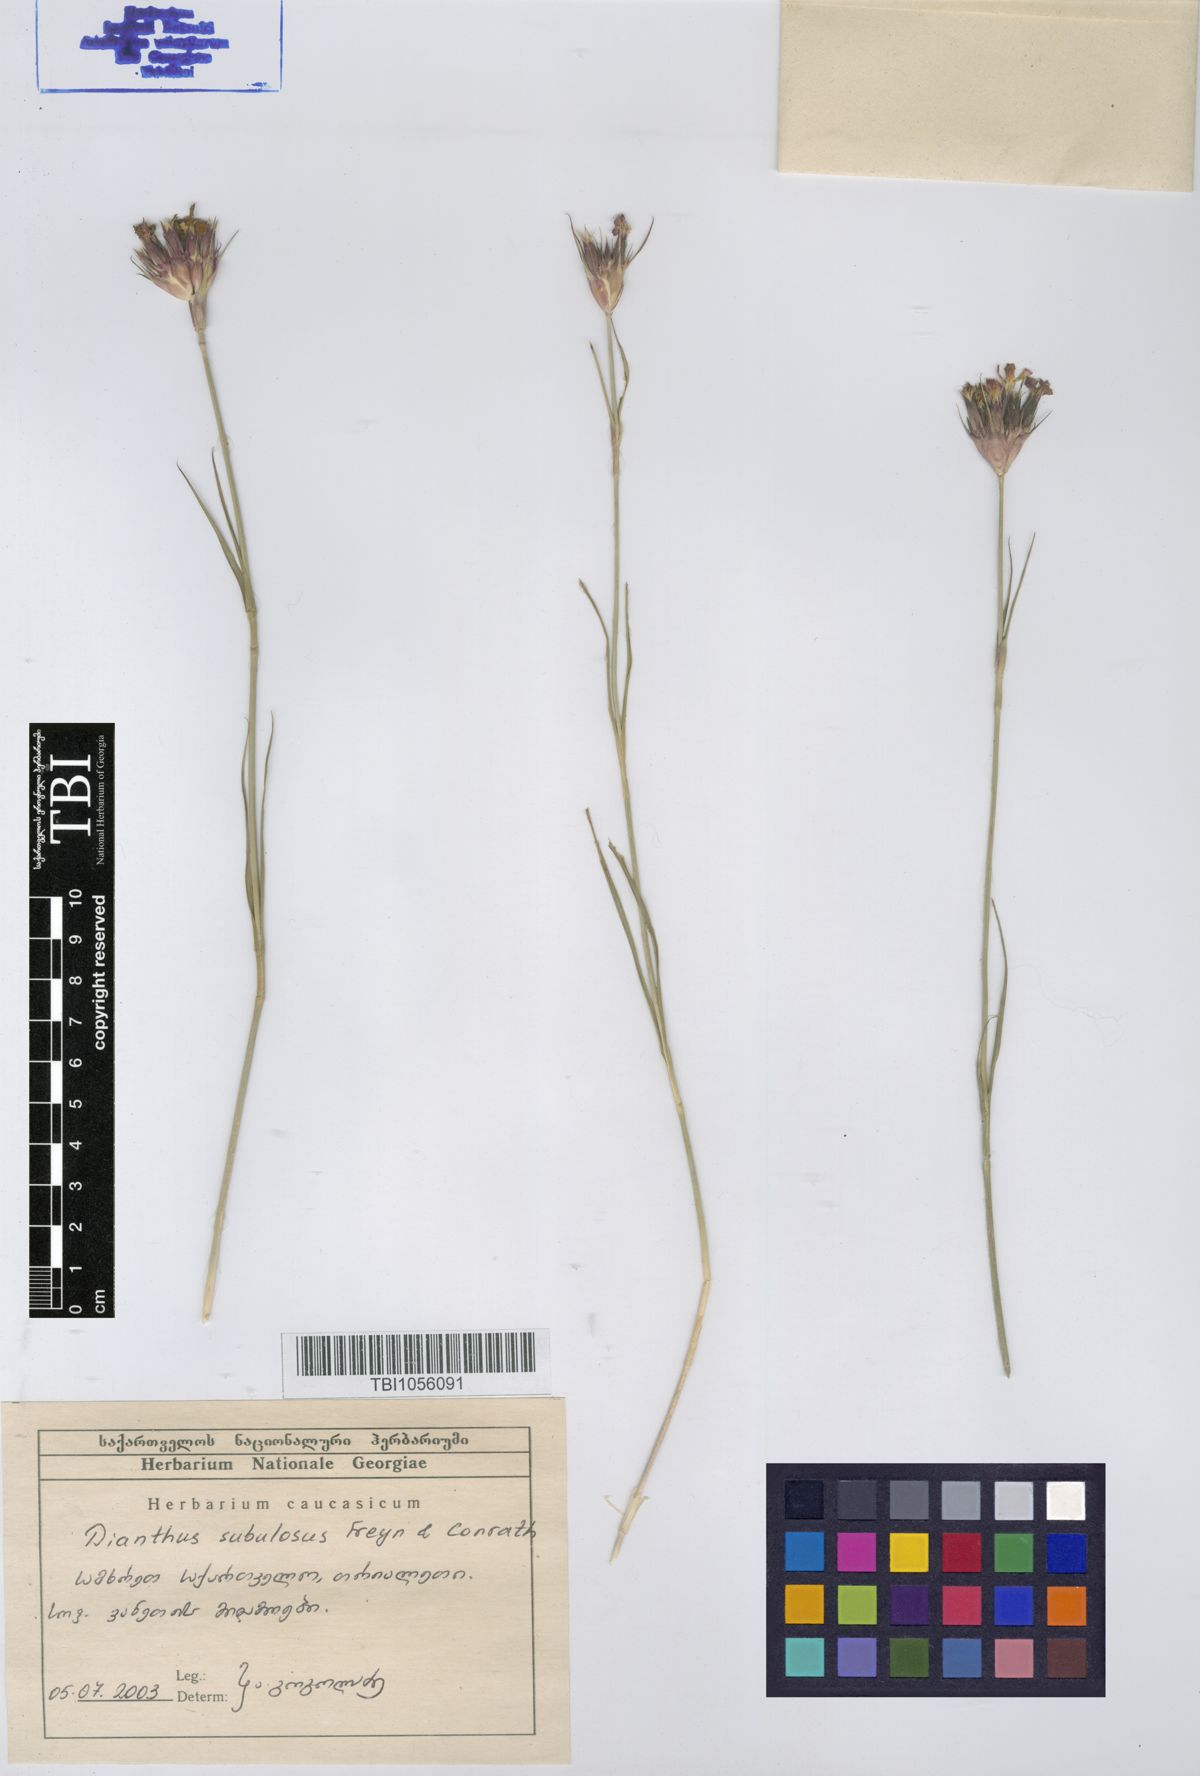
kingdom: Plantae
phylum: Tracheophyta
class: Magnoliopsida
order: Caryophyllales
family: Caryophyllaceae
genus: Dianthus
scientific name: Dianthus subulosus
